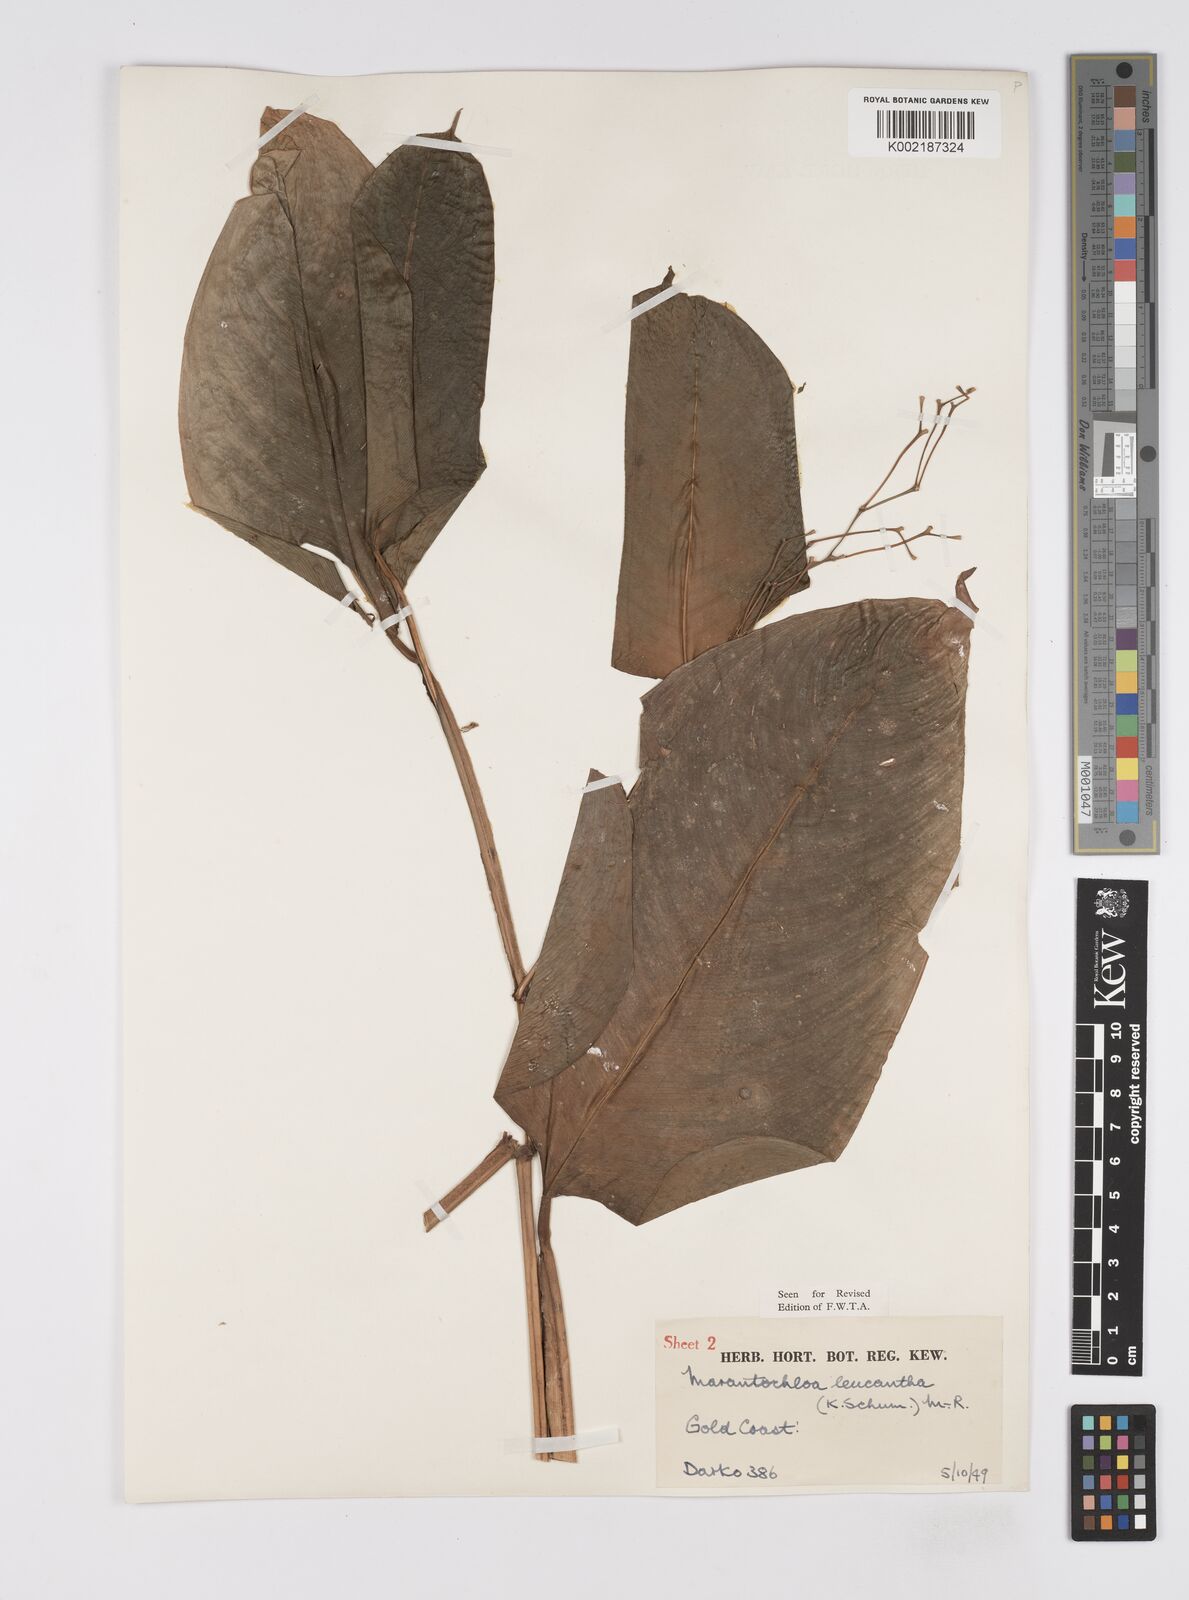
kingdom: Plantae
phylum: Tracheophyta
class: Liliopsida
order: Zingiberales
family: Marantaceae
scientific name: Marantaceae
